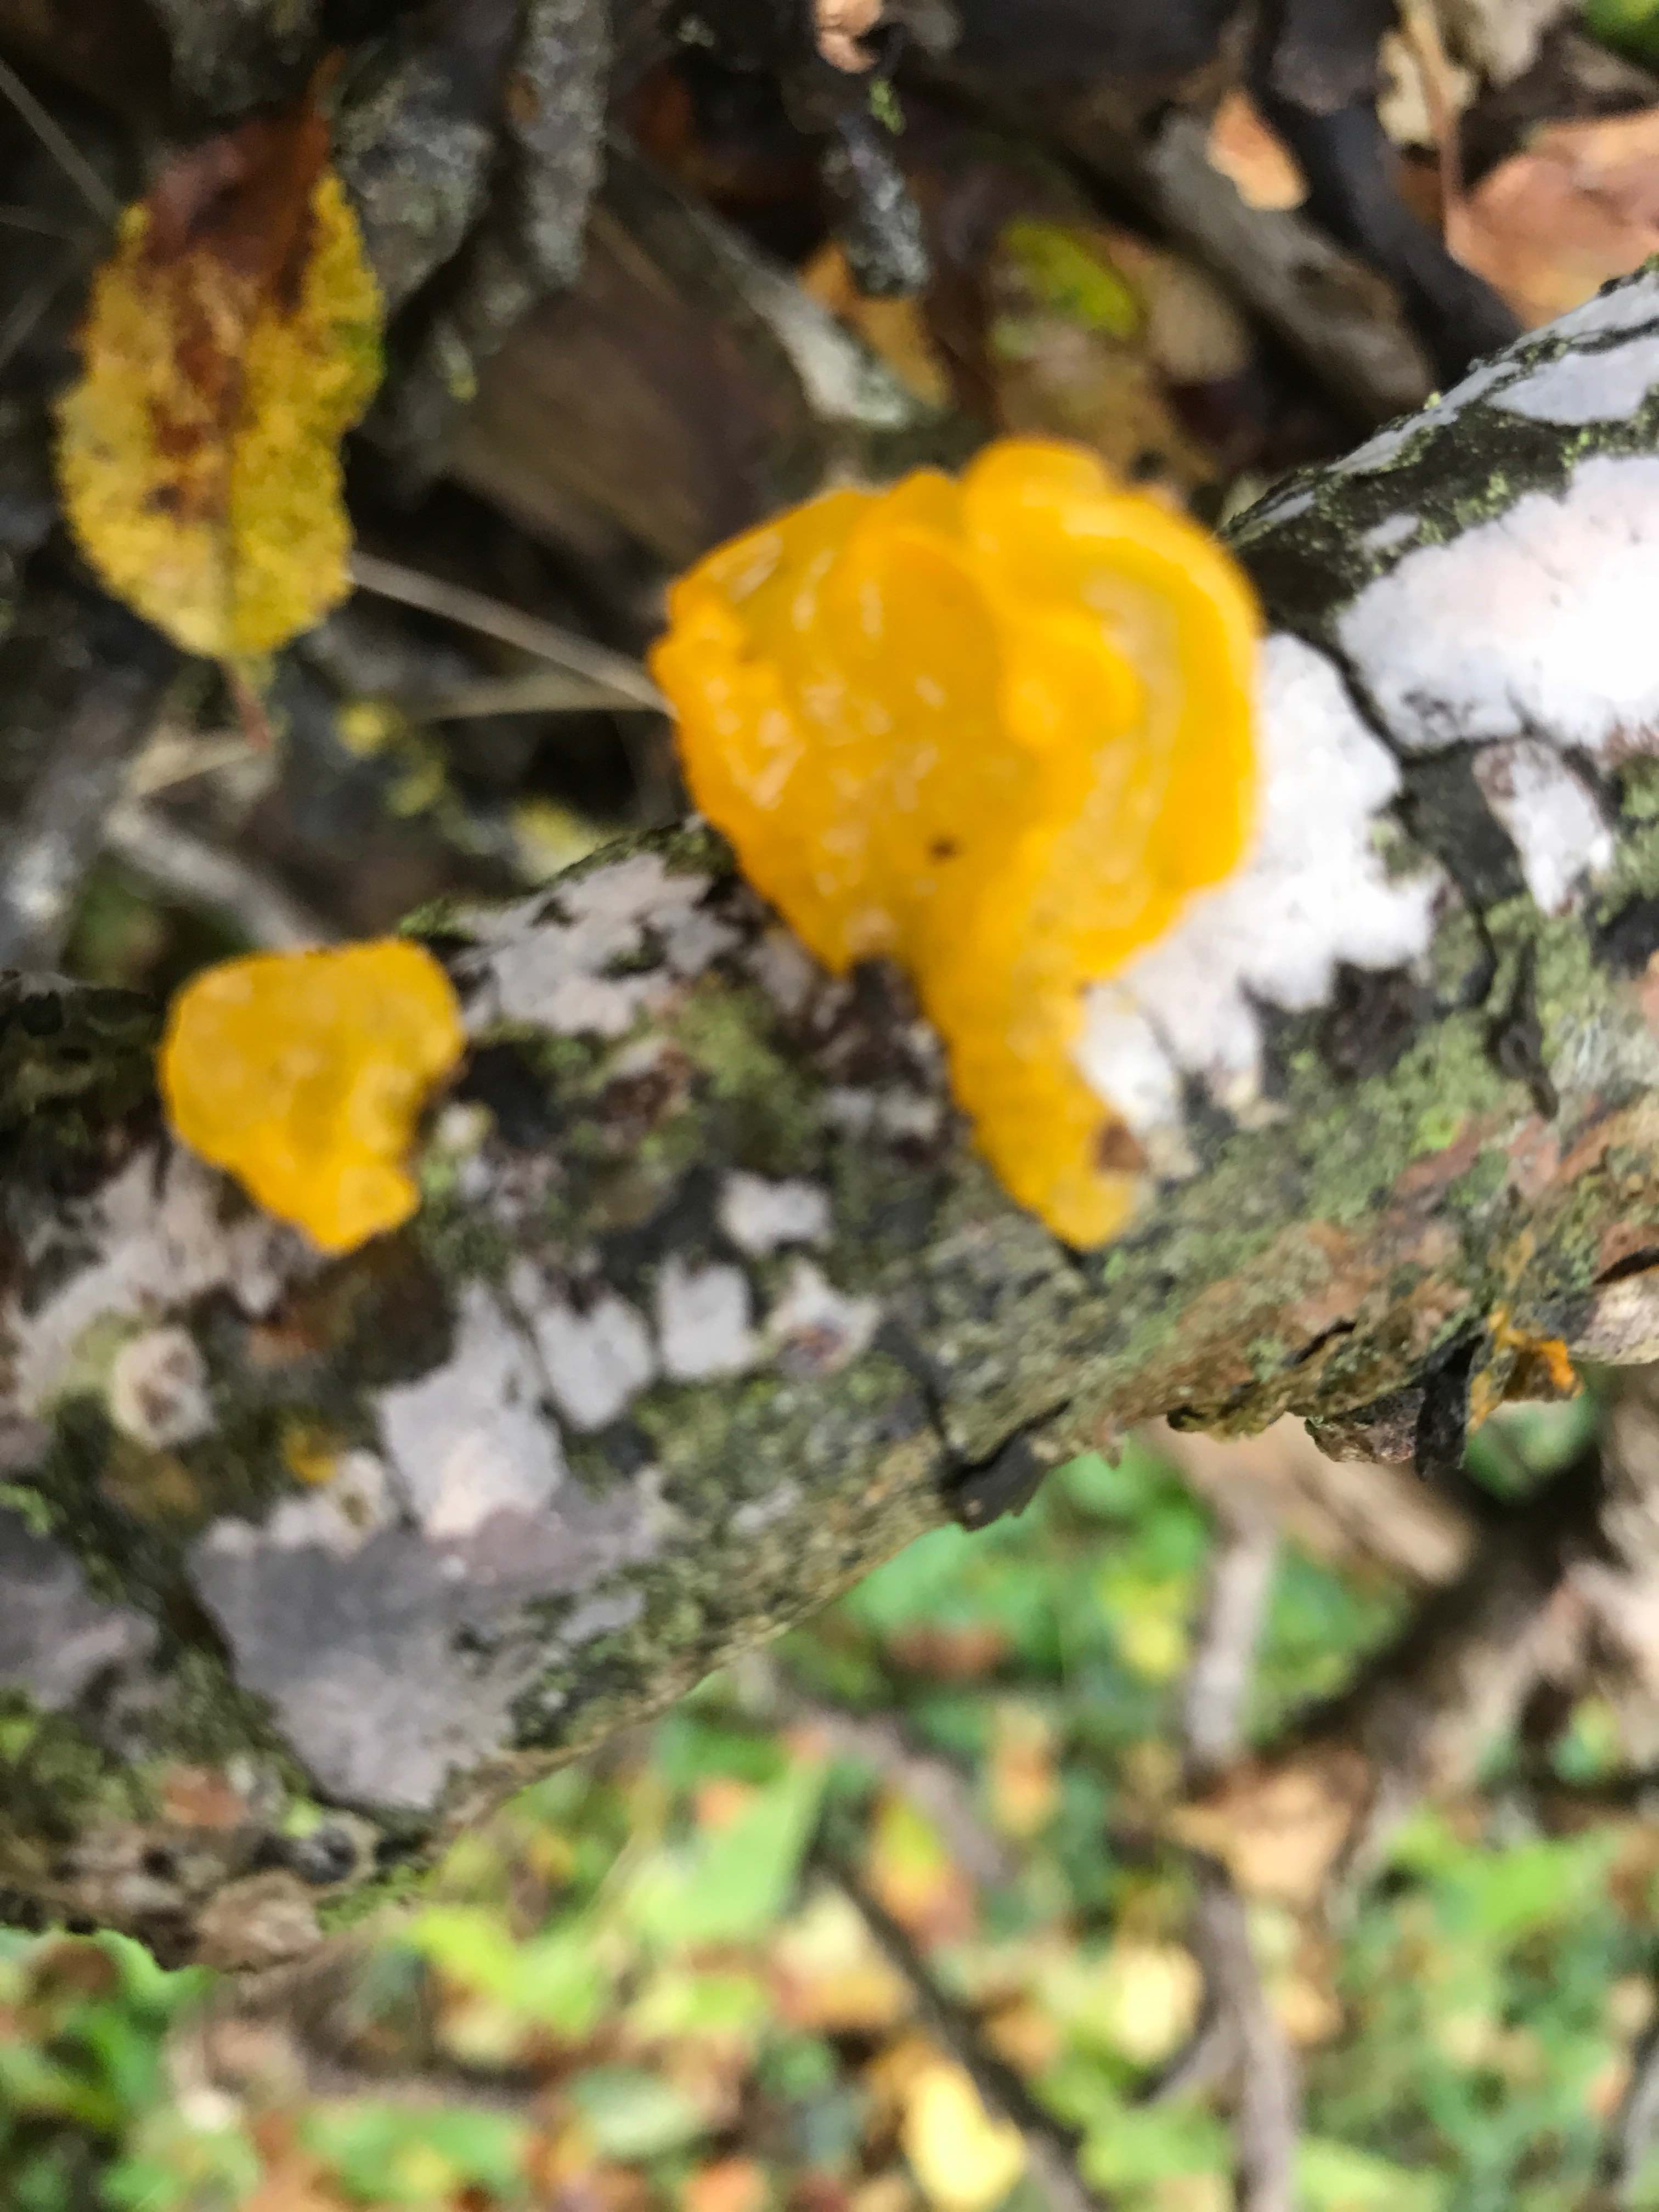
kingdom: Fungi
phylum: Basidiomycota
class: Tremellomycetes
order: Tremellales
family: Tremellaceae
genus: Tremella
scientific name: Tremella mesenterica
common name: gul bævresvamp
